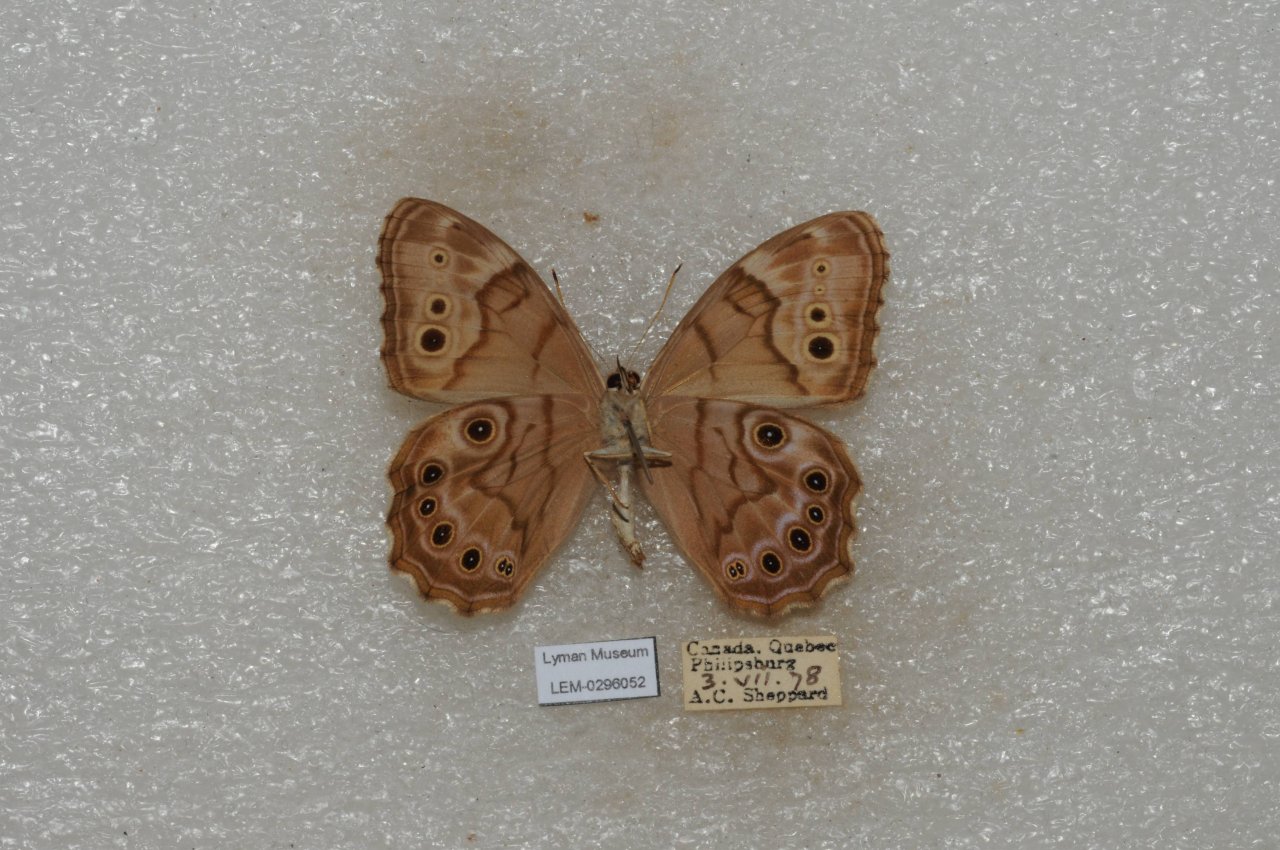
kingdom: Animalia
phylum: Arthropoda
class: Insecta
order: Lepidoptera
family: Nymphalidae
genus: Lethe
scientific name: Lethe anthedon
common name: Northern Pearly-Eye
